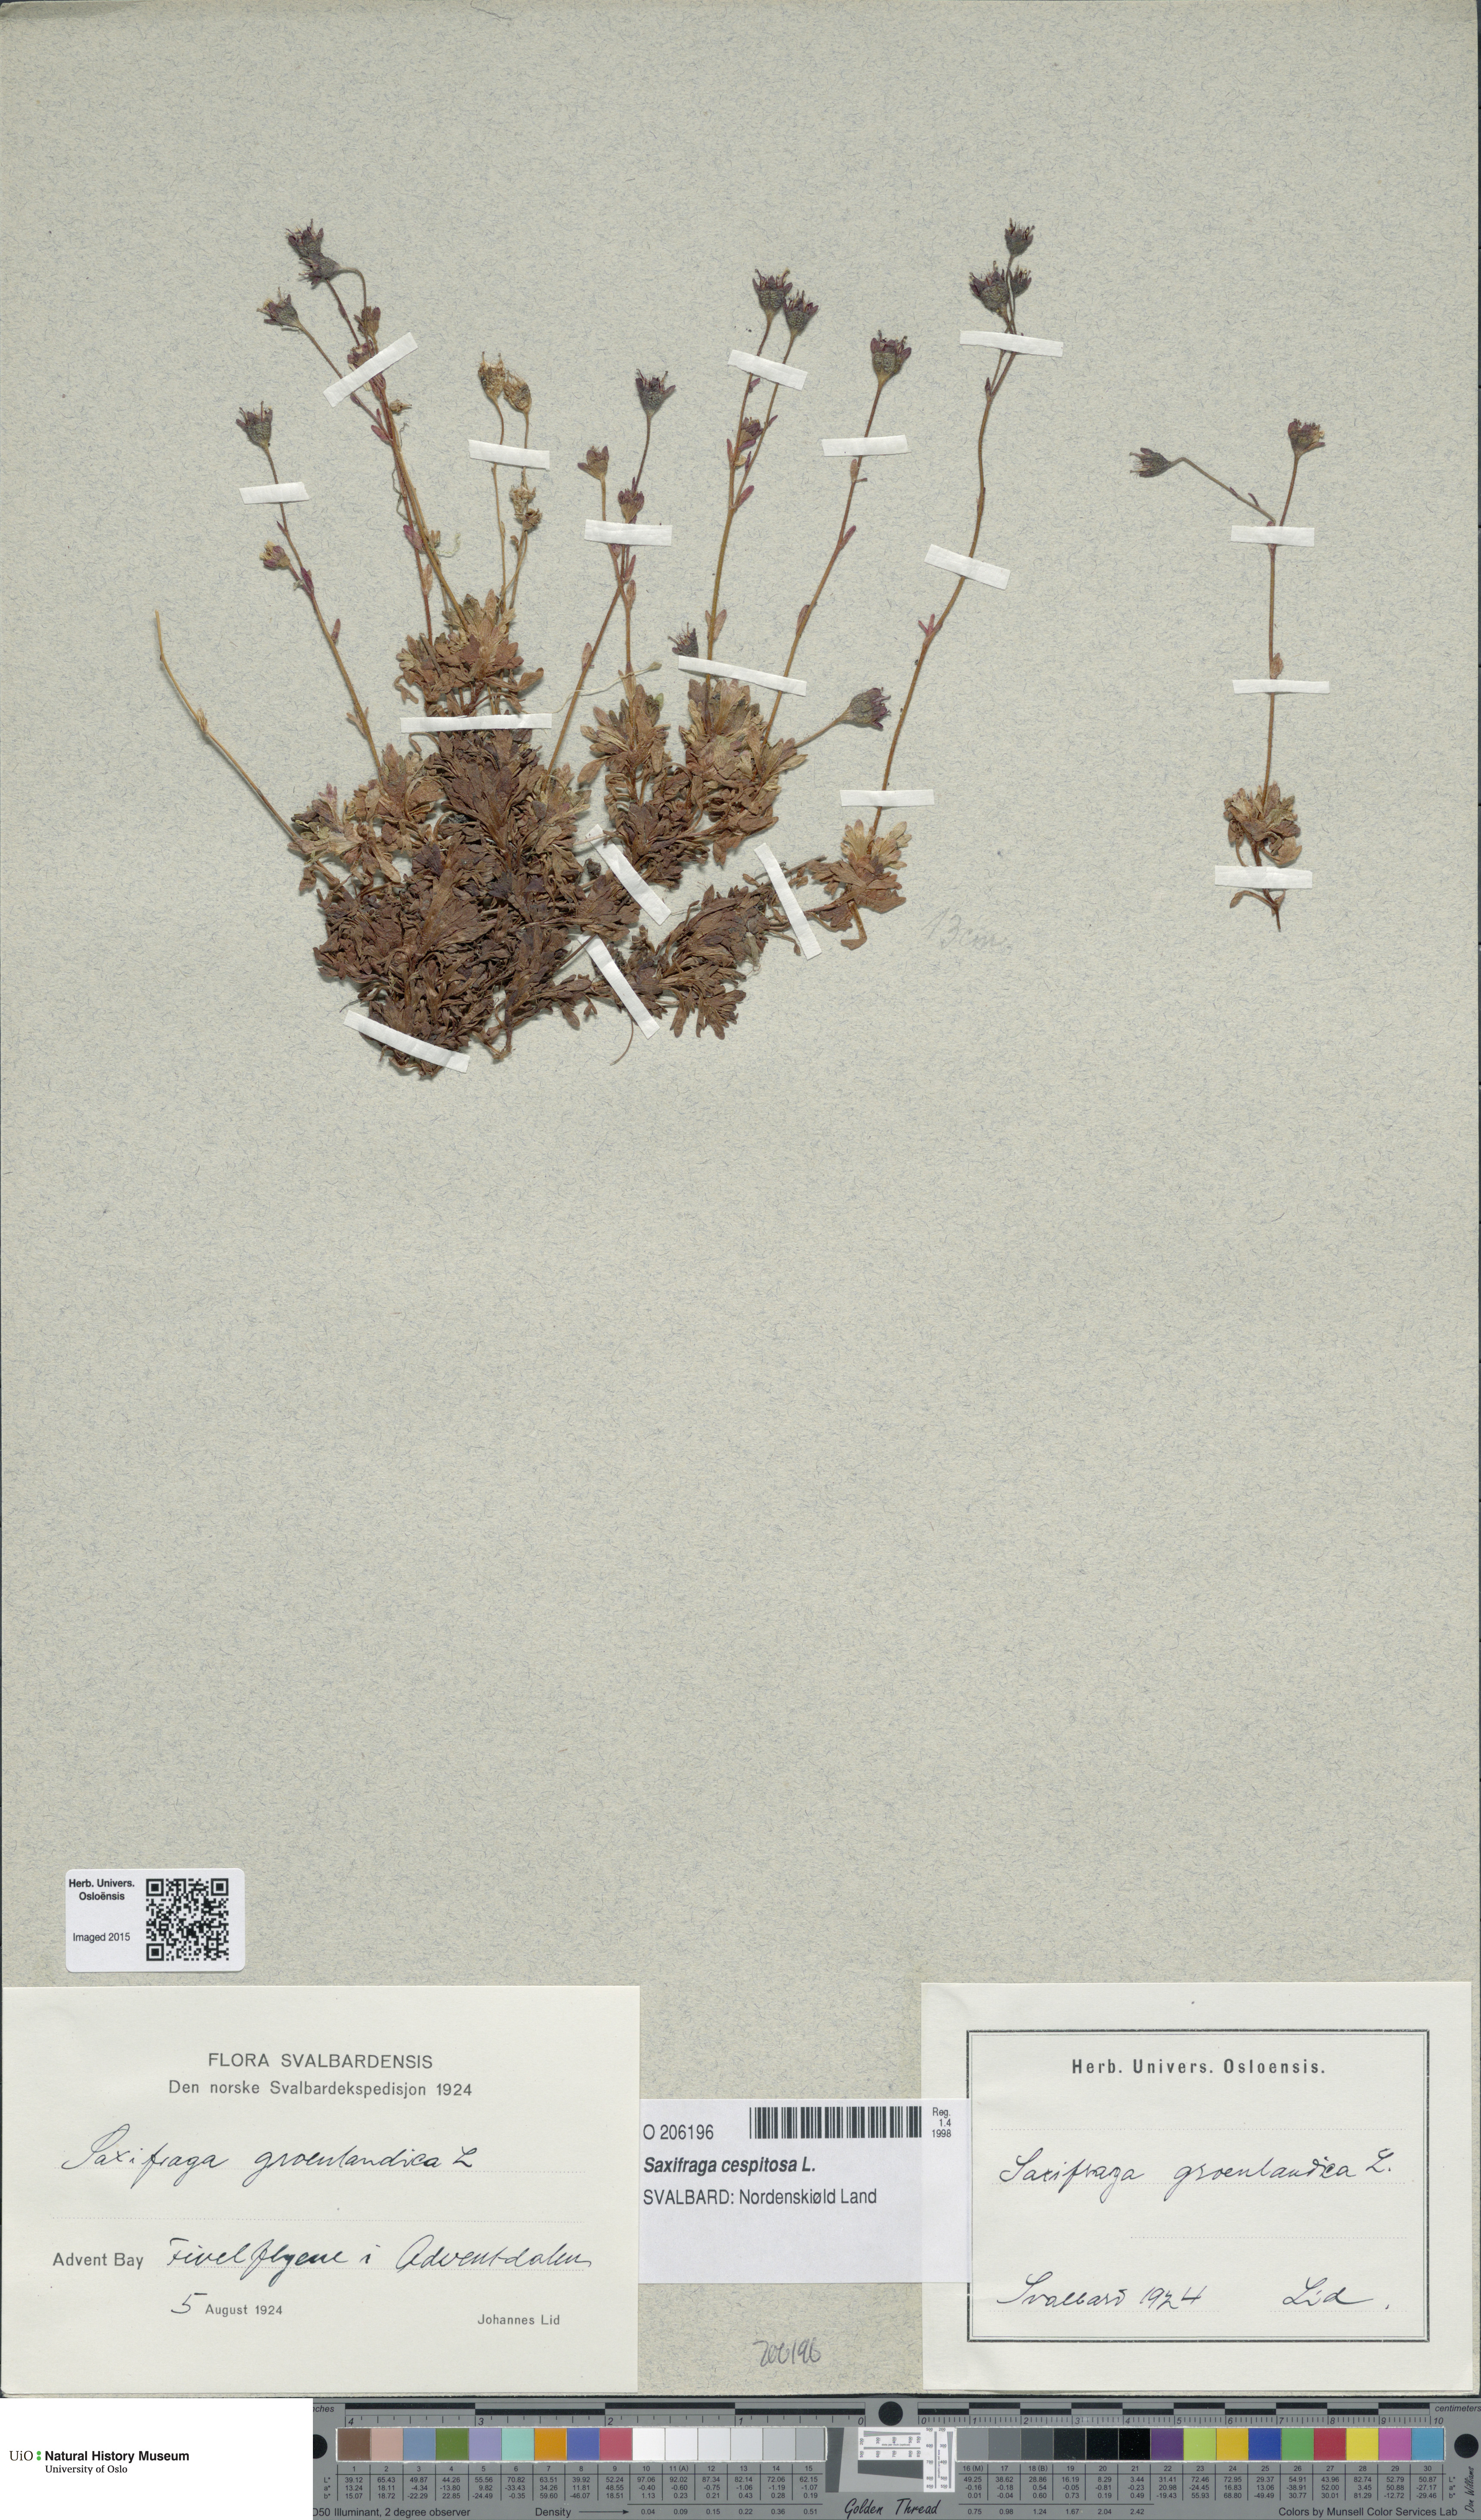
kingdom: Plantae
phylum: Tracheophyta
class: Magnoliopsida
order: Saxifragales
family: Saxifragaceae
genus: Saxifraga
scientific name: Saxifraga cespitosa
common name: Tufted saxifrage
